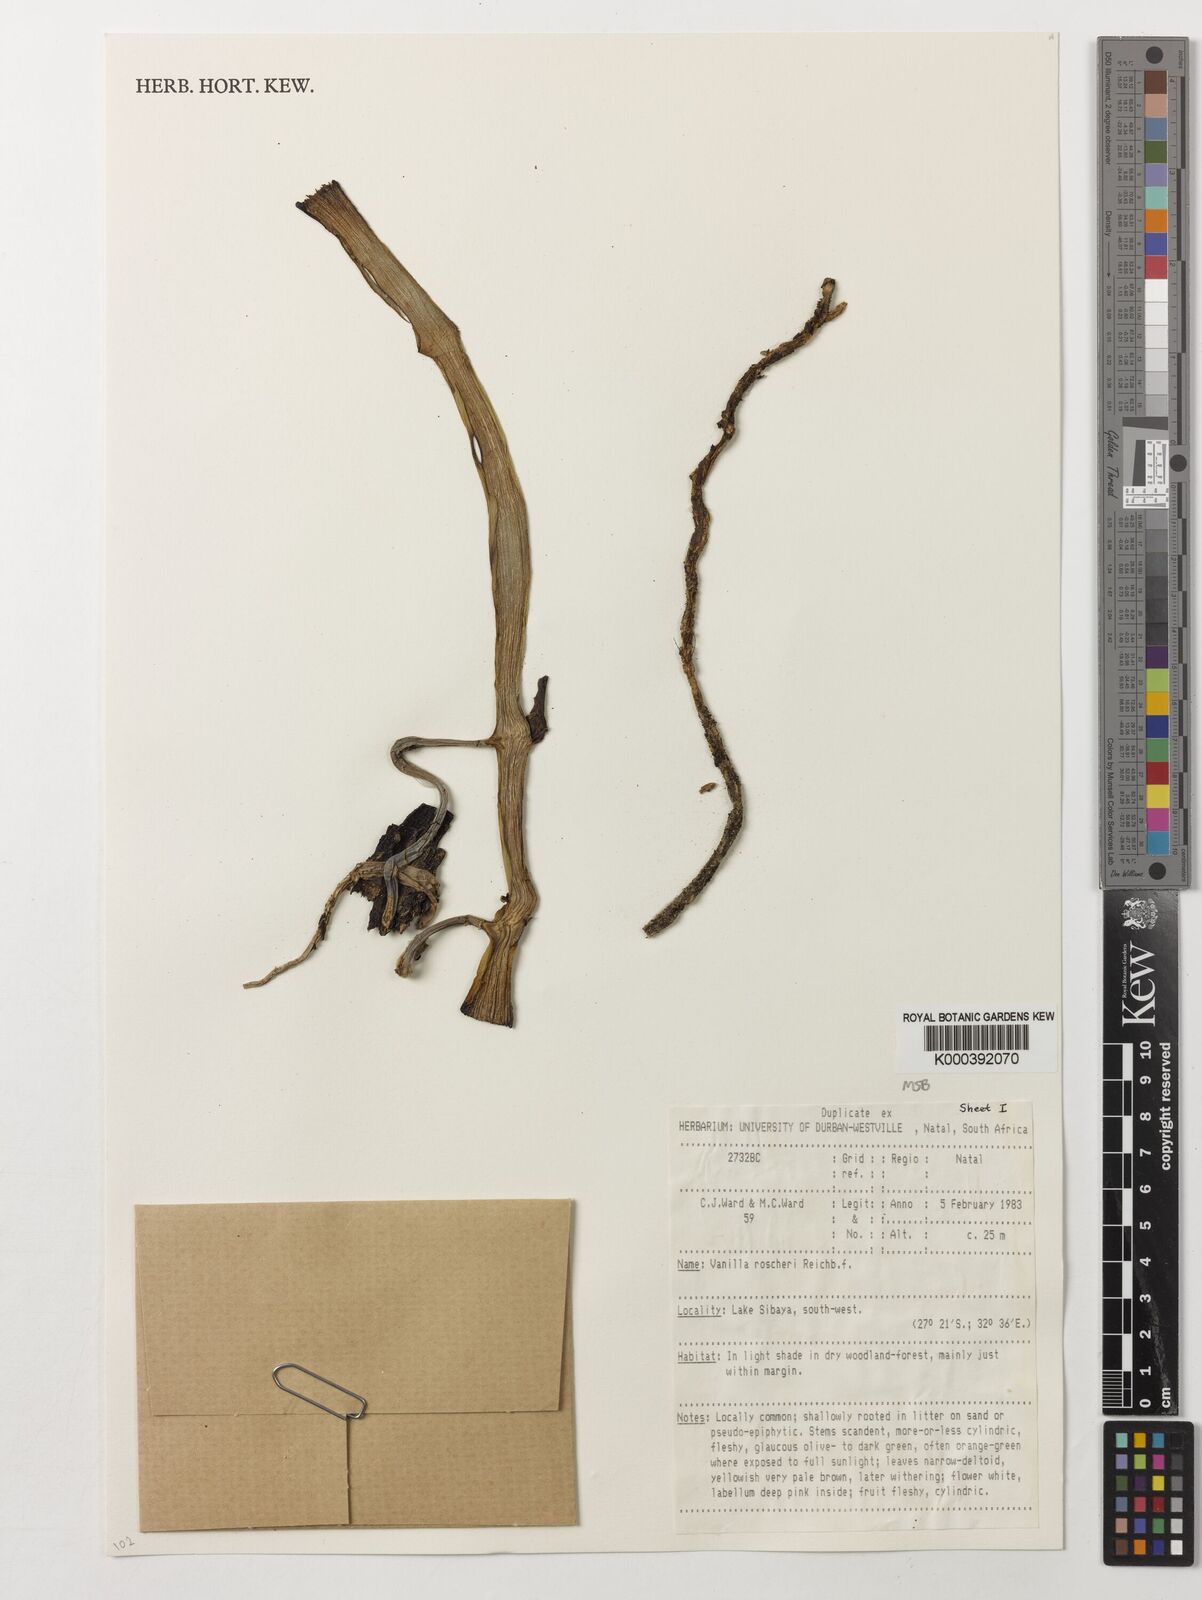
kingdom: Plantae
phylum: Tracheophyta
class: Liliopsida
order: Asparagales
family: Orchidaceae
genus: Vanilla
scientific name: Vanilla roscheri
